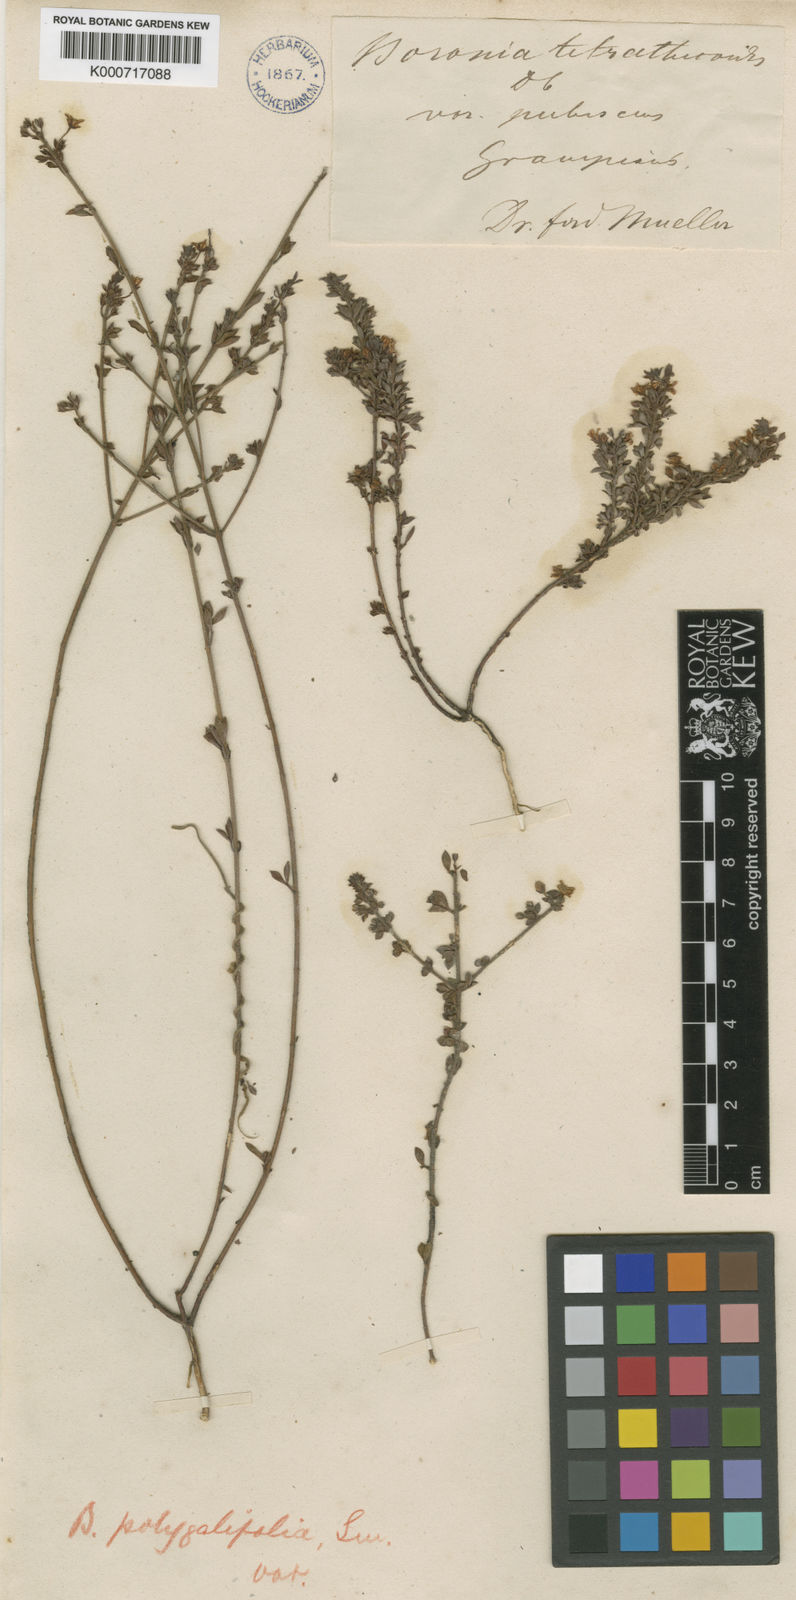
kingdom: Plantae
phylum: Tracheophyta
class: Magnoliopsida
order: Sapindales
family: Rutaceae
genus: Cyanothamnus
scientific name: Cyanothamnus nanus
